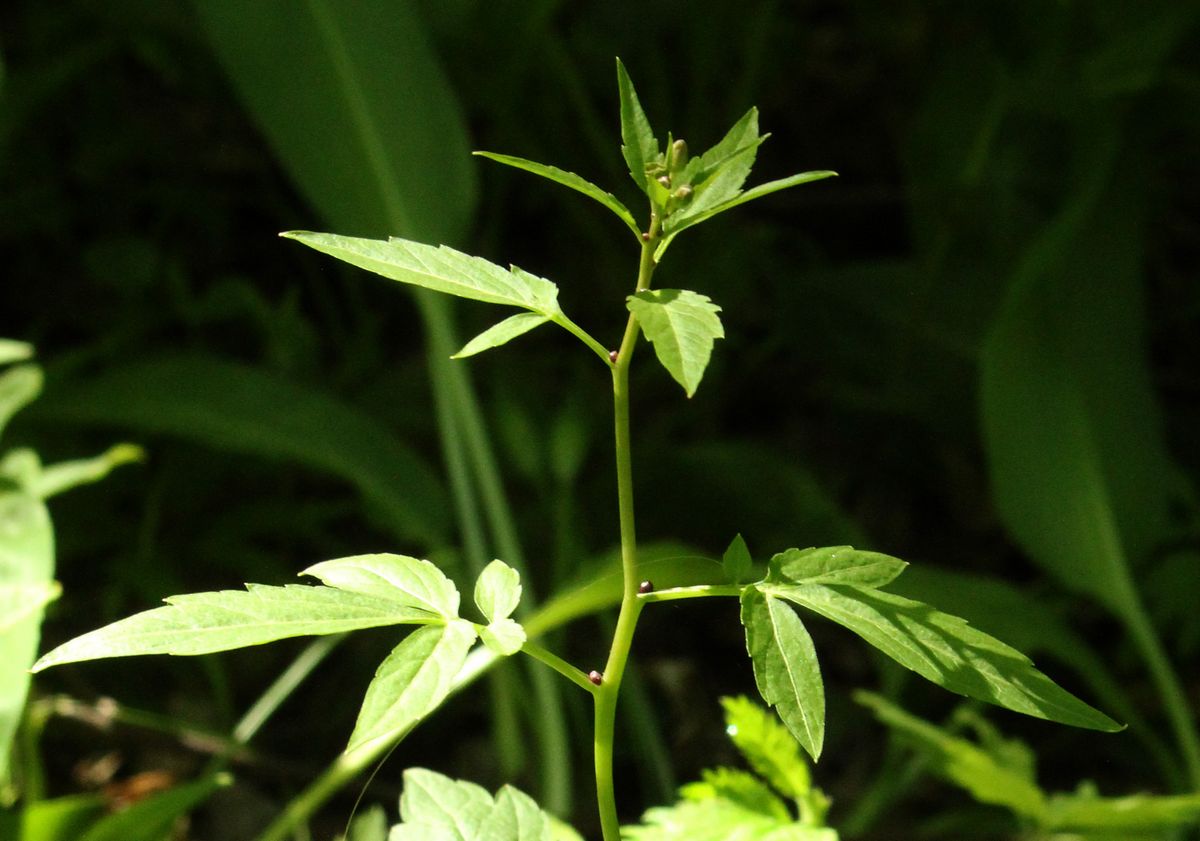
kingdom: Plantae
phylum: Tracheophyta
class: Magnoliopsida
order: Brassicales
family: Brassicaceae
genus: Cardamine
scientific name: Cardamine bulbifera
